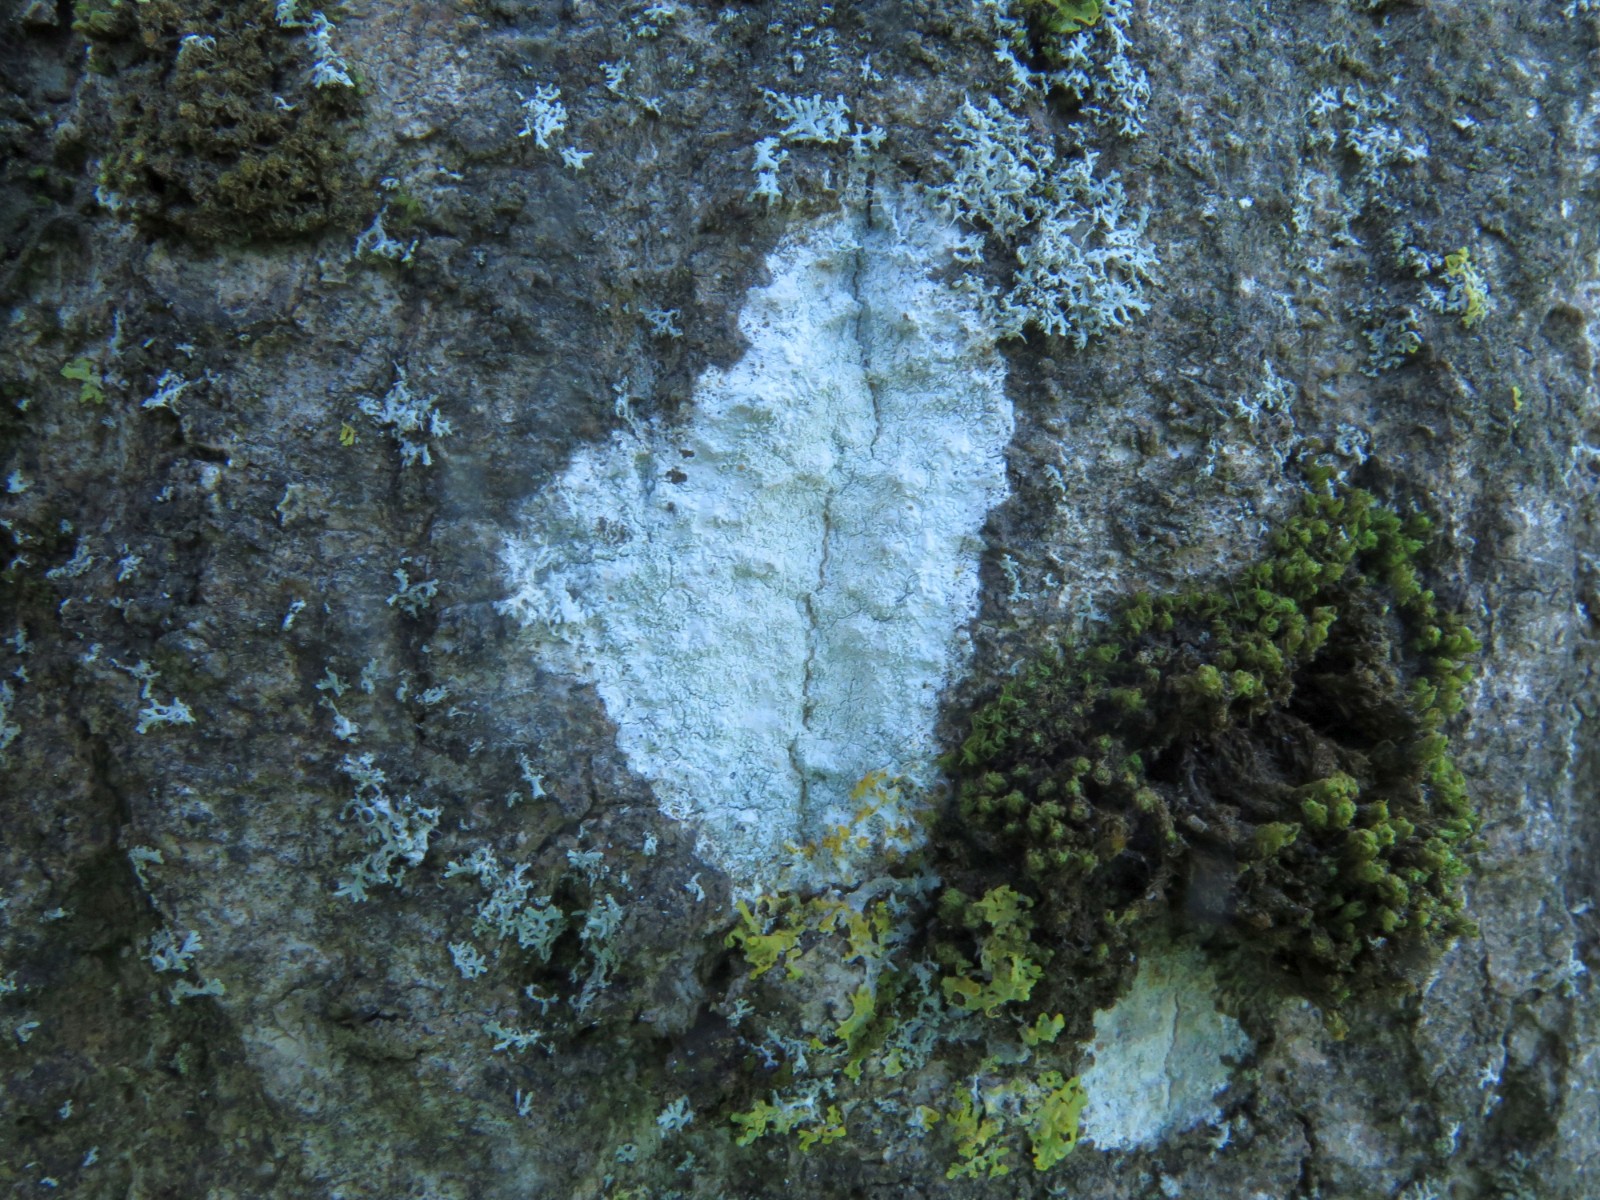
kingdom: Fungi
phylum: Ascomycota
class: Lecanoromycetes
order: Ostropales
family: Phlyctidaceae
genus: Phlyctis
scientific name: Phlyctis argena
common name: almindelig sølvlav
